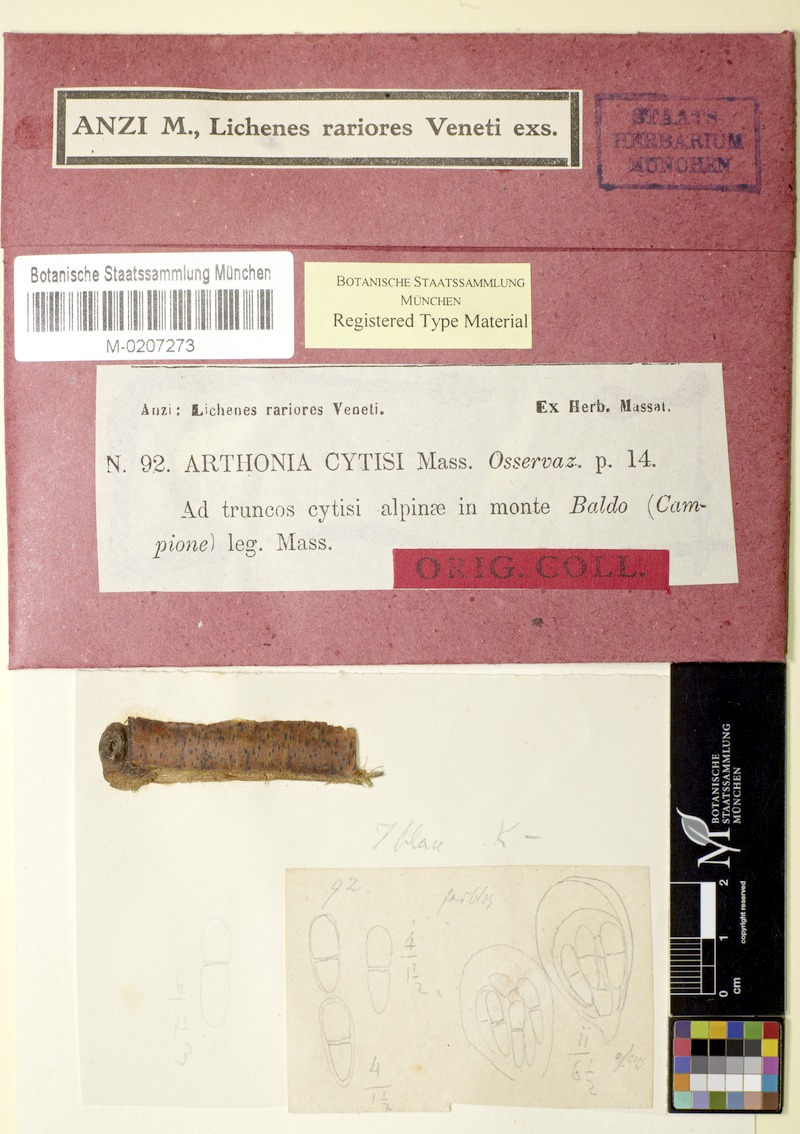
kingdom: Fungi
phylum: Ascomycota
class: Arthoniomycetes
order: Arthoniales
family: Arthoniaceae
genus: Naevia
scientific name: Naevia dispersa
